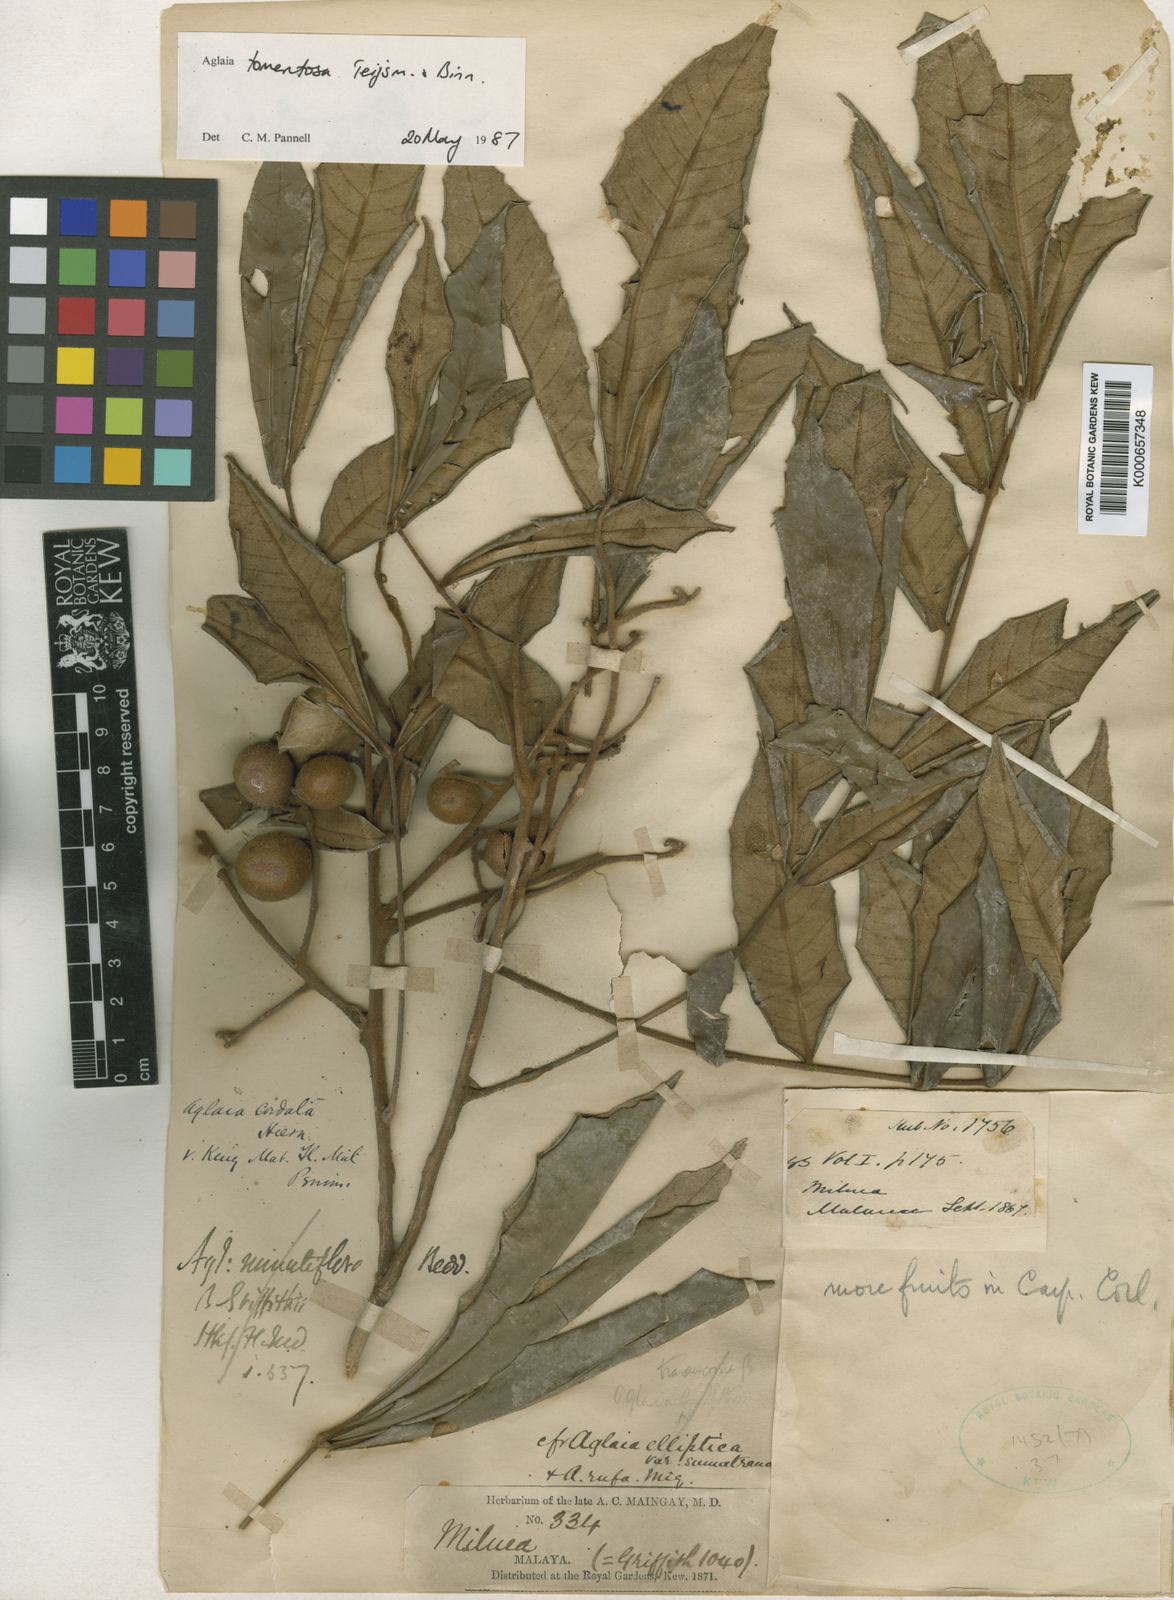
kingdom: Plantae
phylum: Tracheophyta
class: Magnoliopsida
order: Sapindales
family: Meliaceae
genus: Aglaia
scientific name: Aglaia tomentosa
